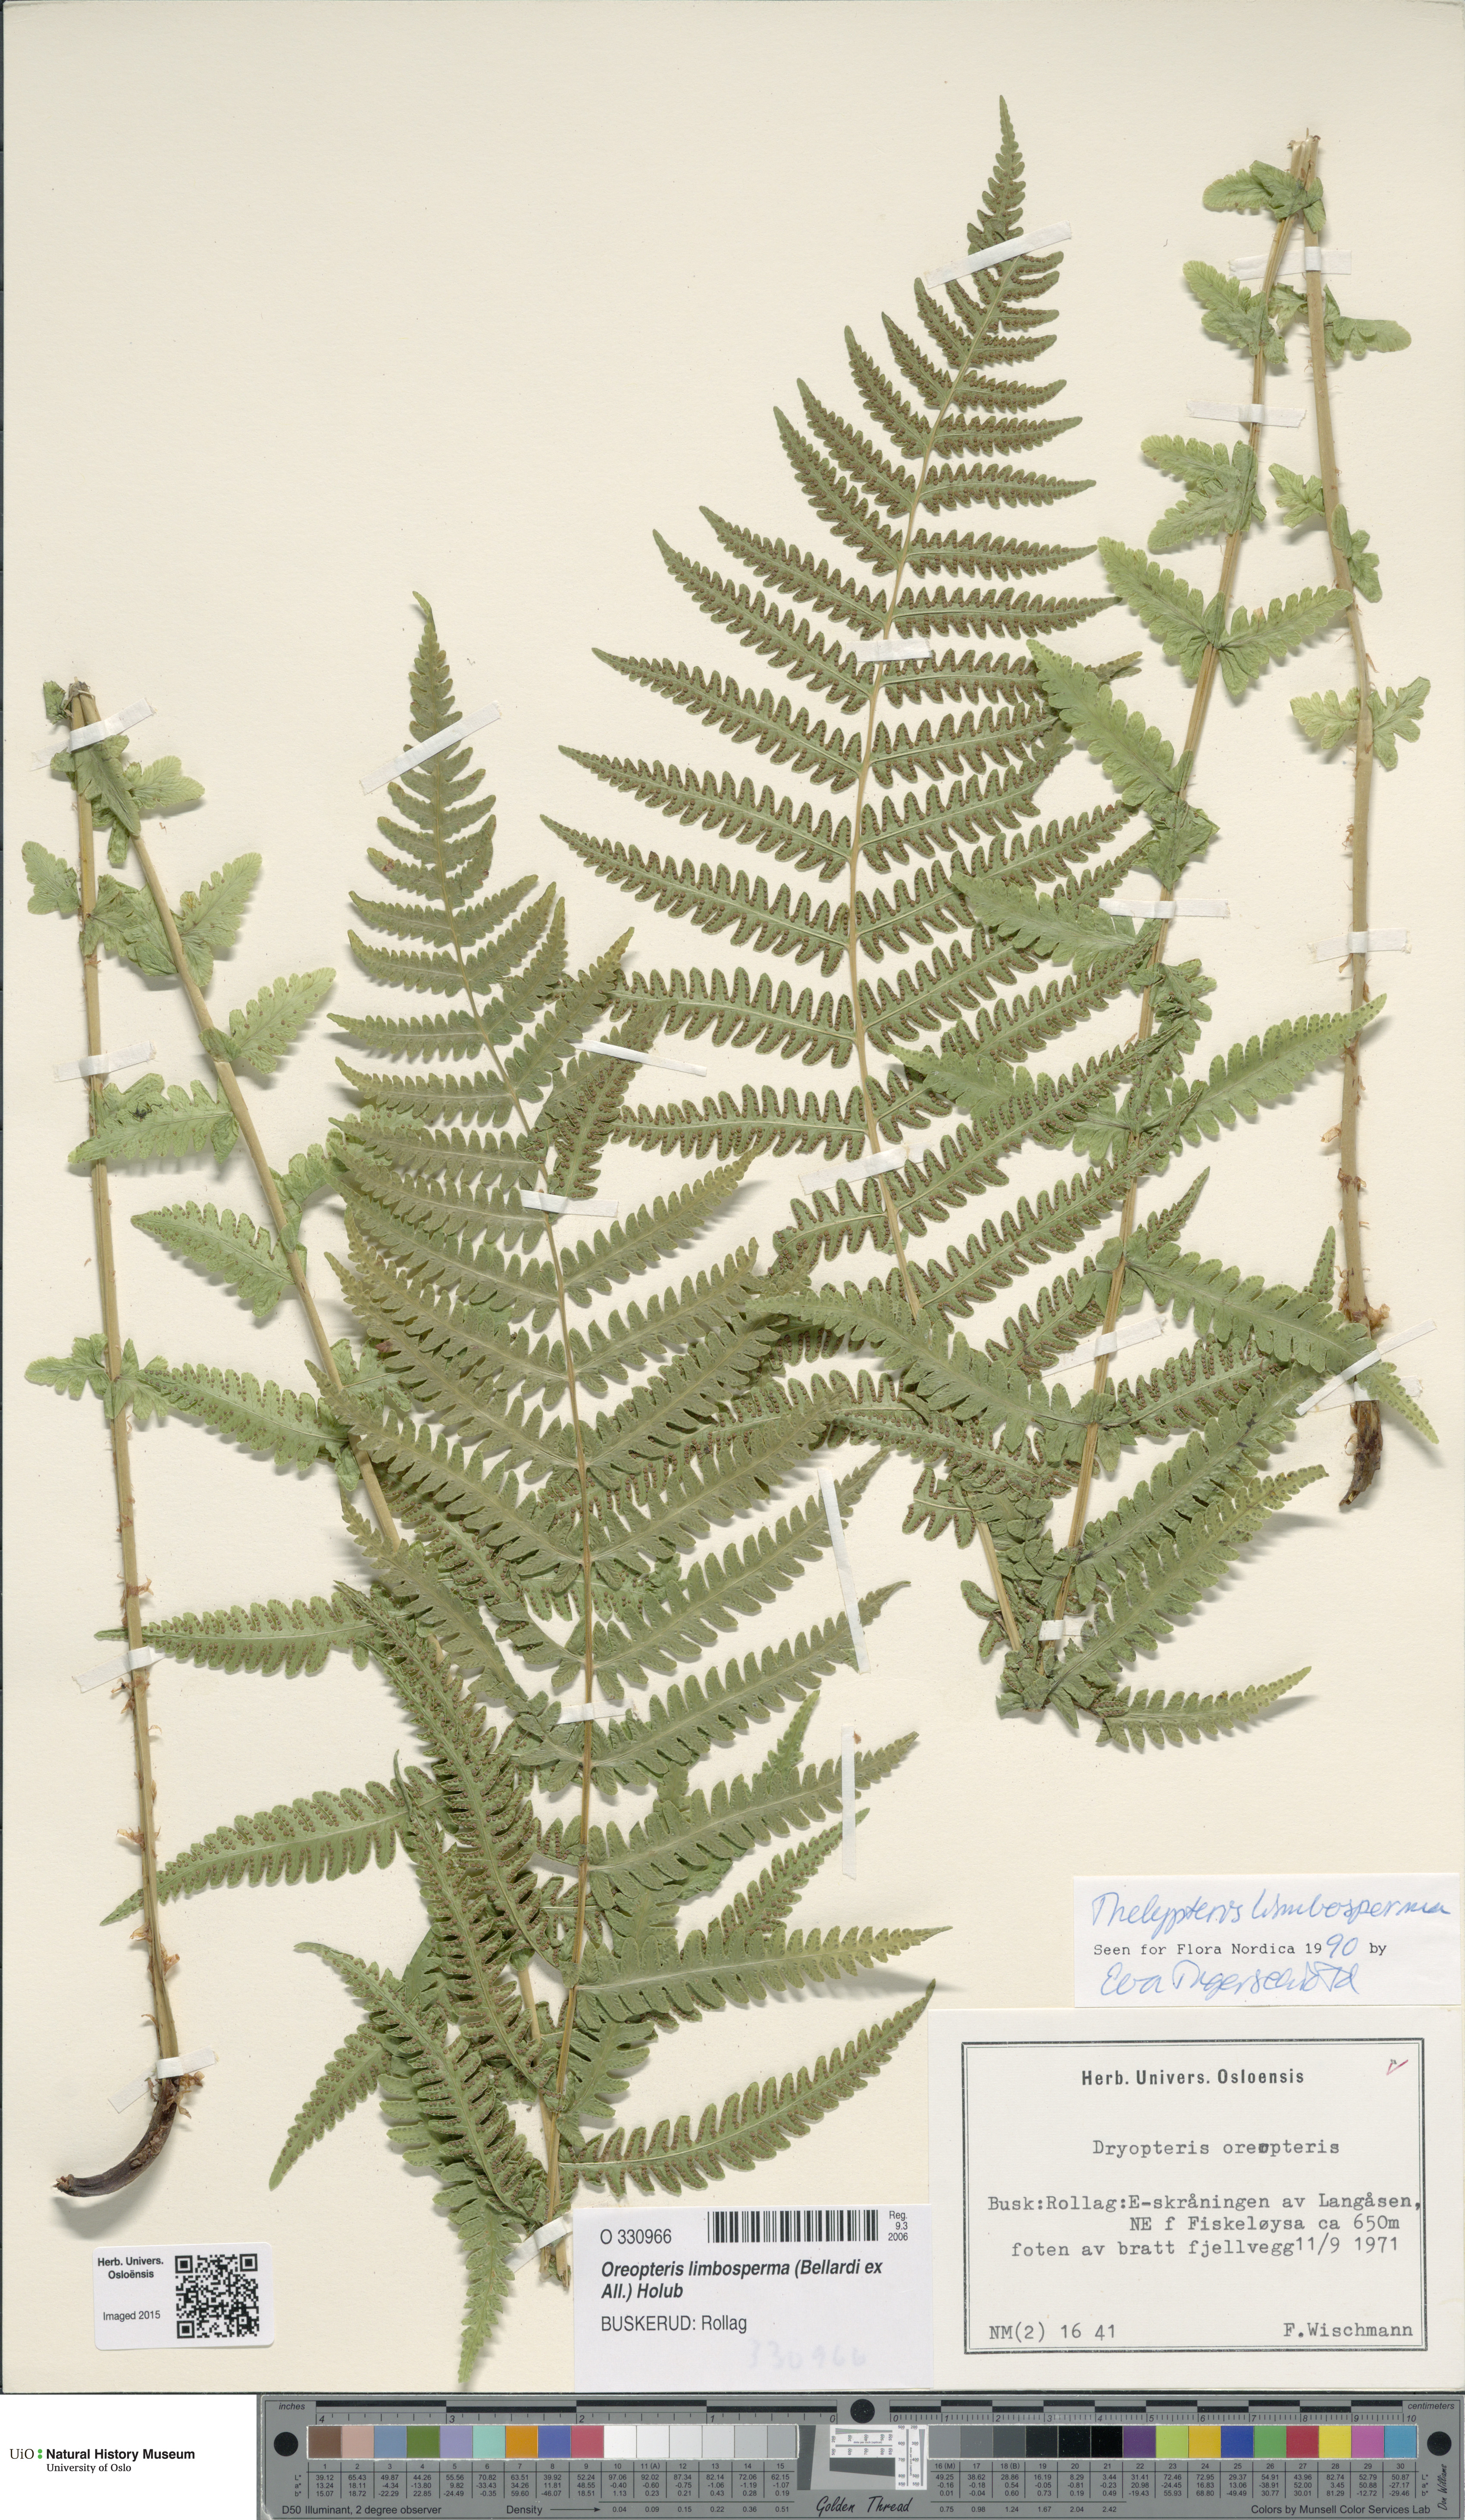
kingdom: Plantae
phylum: Tracheophyta
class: Polypodiopsida
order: Polypodiales
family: Thelypteridaceae
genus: Oreopteris
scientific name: Oreopteris limbosperma
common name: Lemon-scented fern
